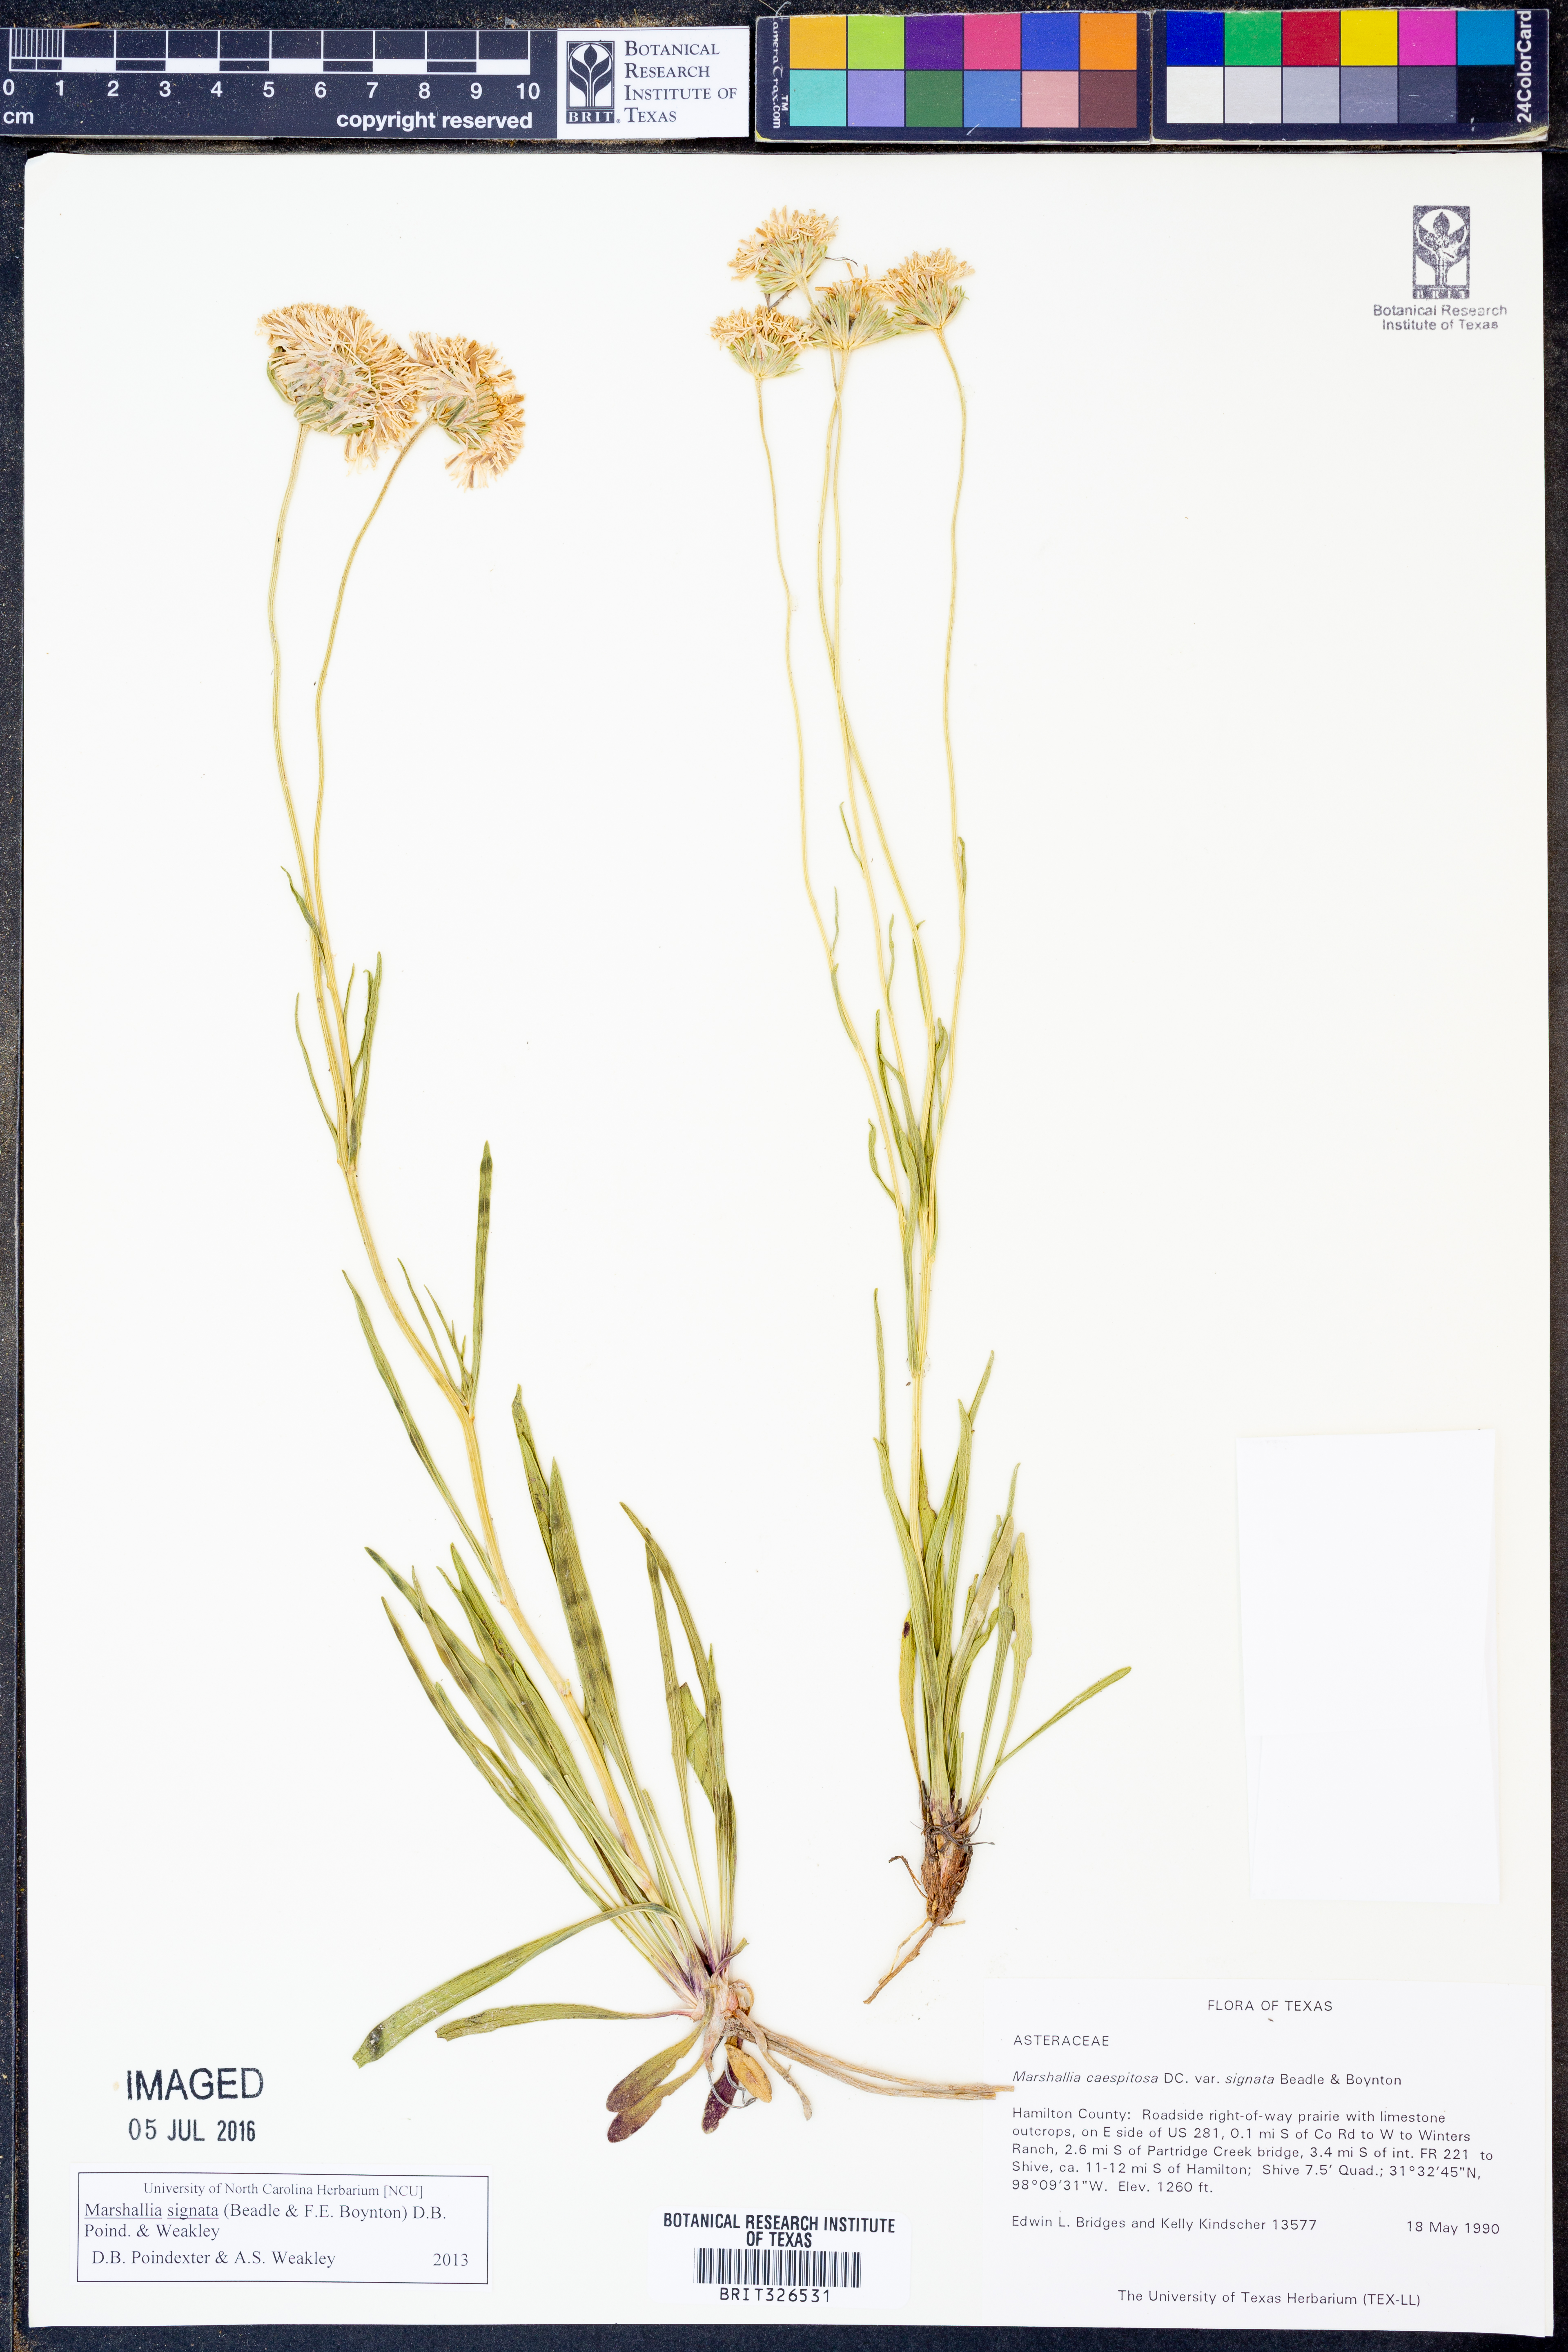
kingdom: Plantae
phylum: Tracheophyta
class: Magnoliopsida
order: Asterales
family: Asteraceae
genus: Marshallia
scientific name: Marshallia
